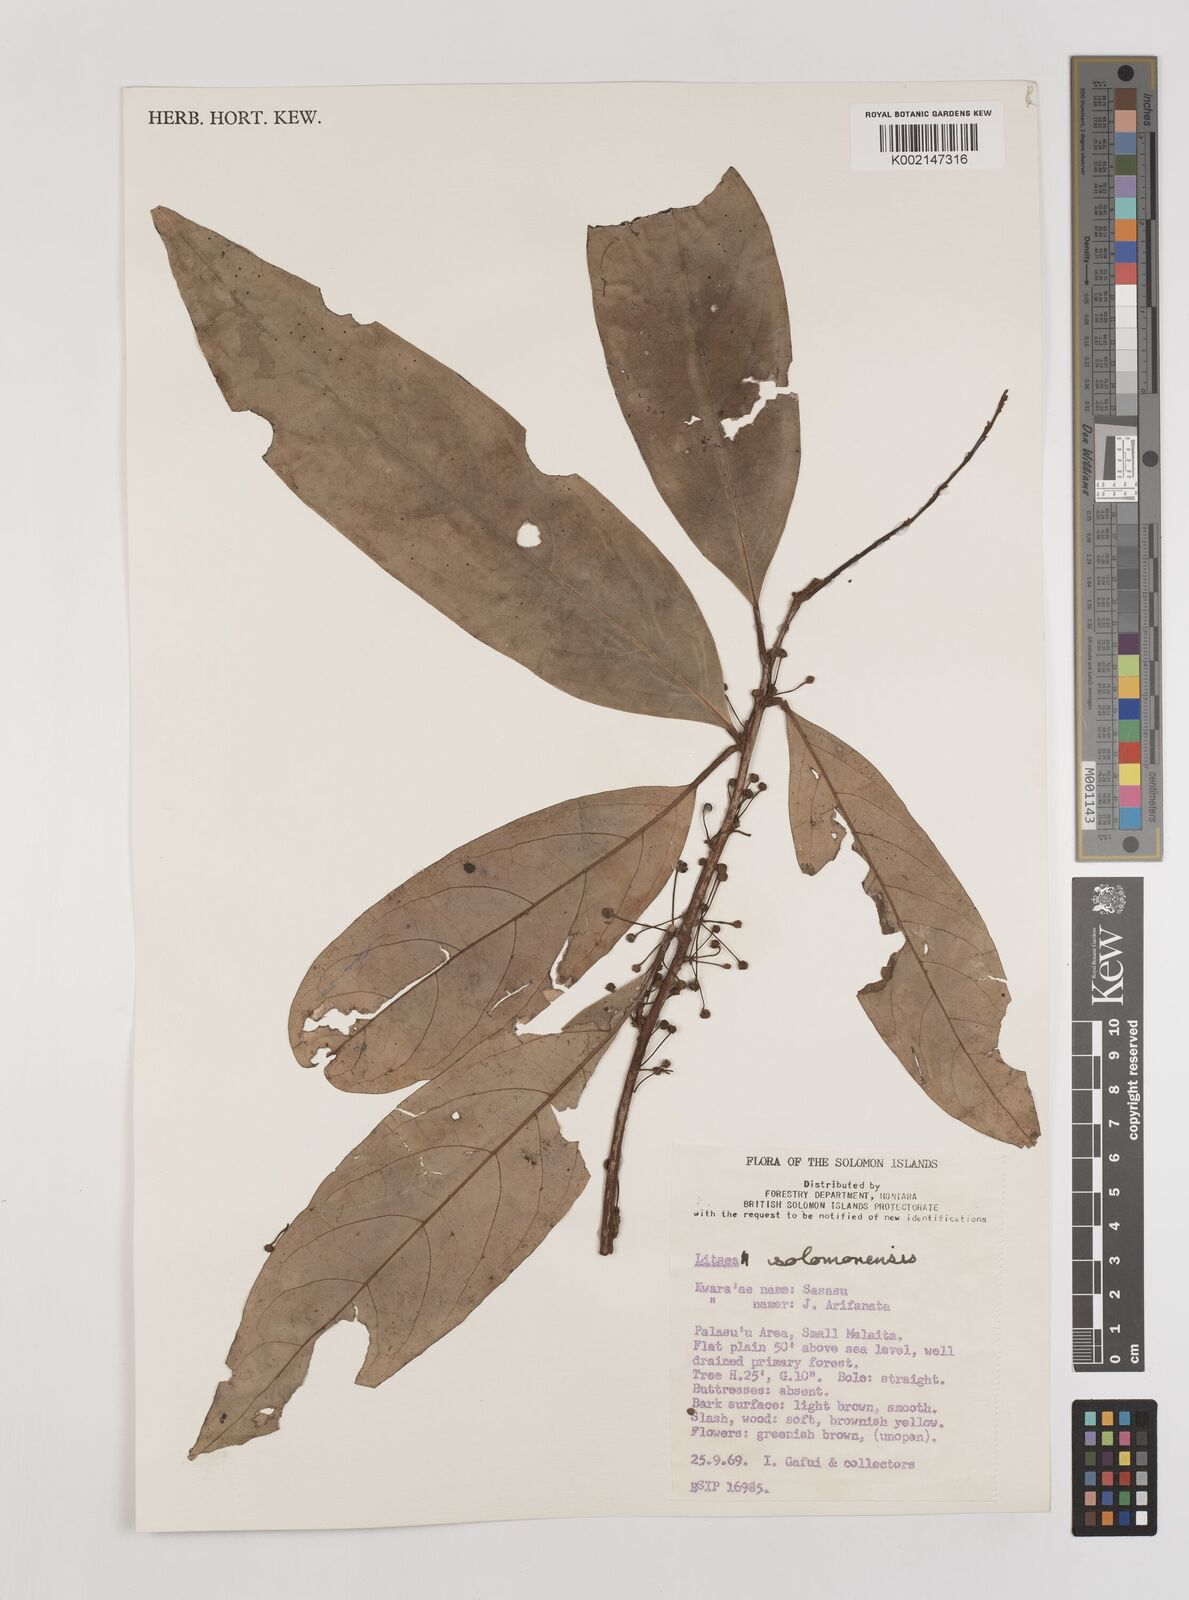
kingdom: Plantae
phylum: Tracheophyta
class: Magnoliopsida
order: Laurales
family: Lauraceae
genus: Litsea
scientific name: Litsea timoriana
